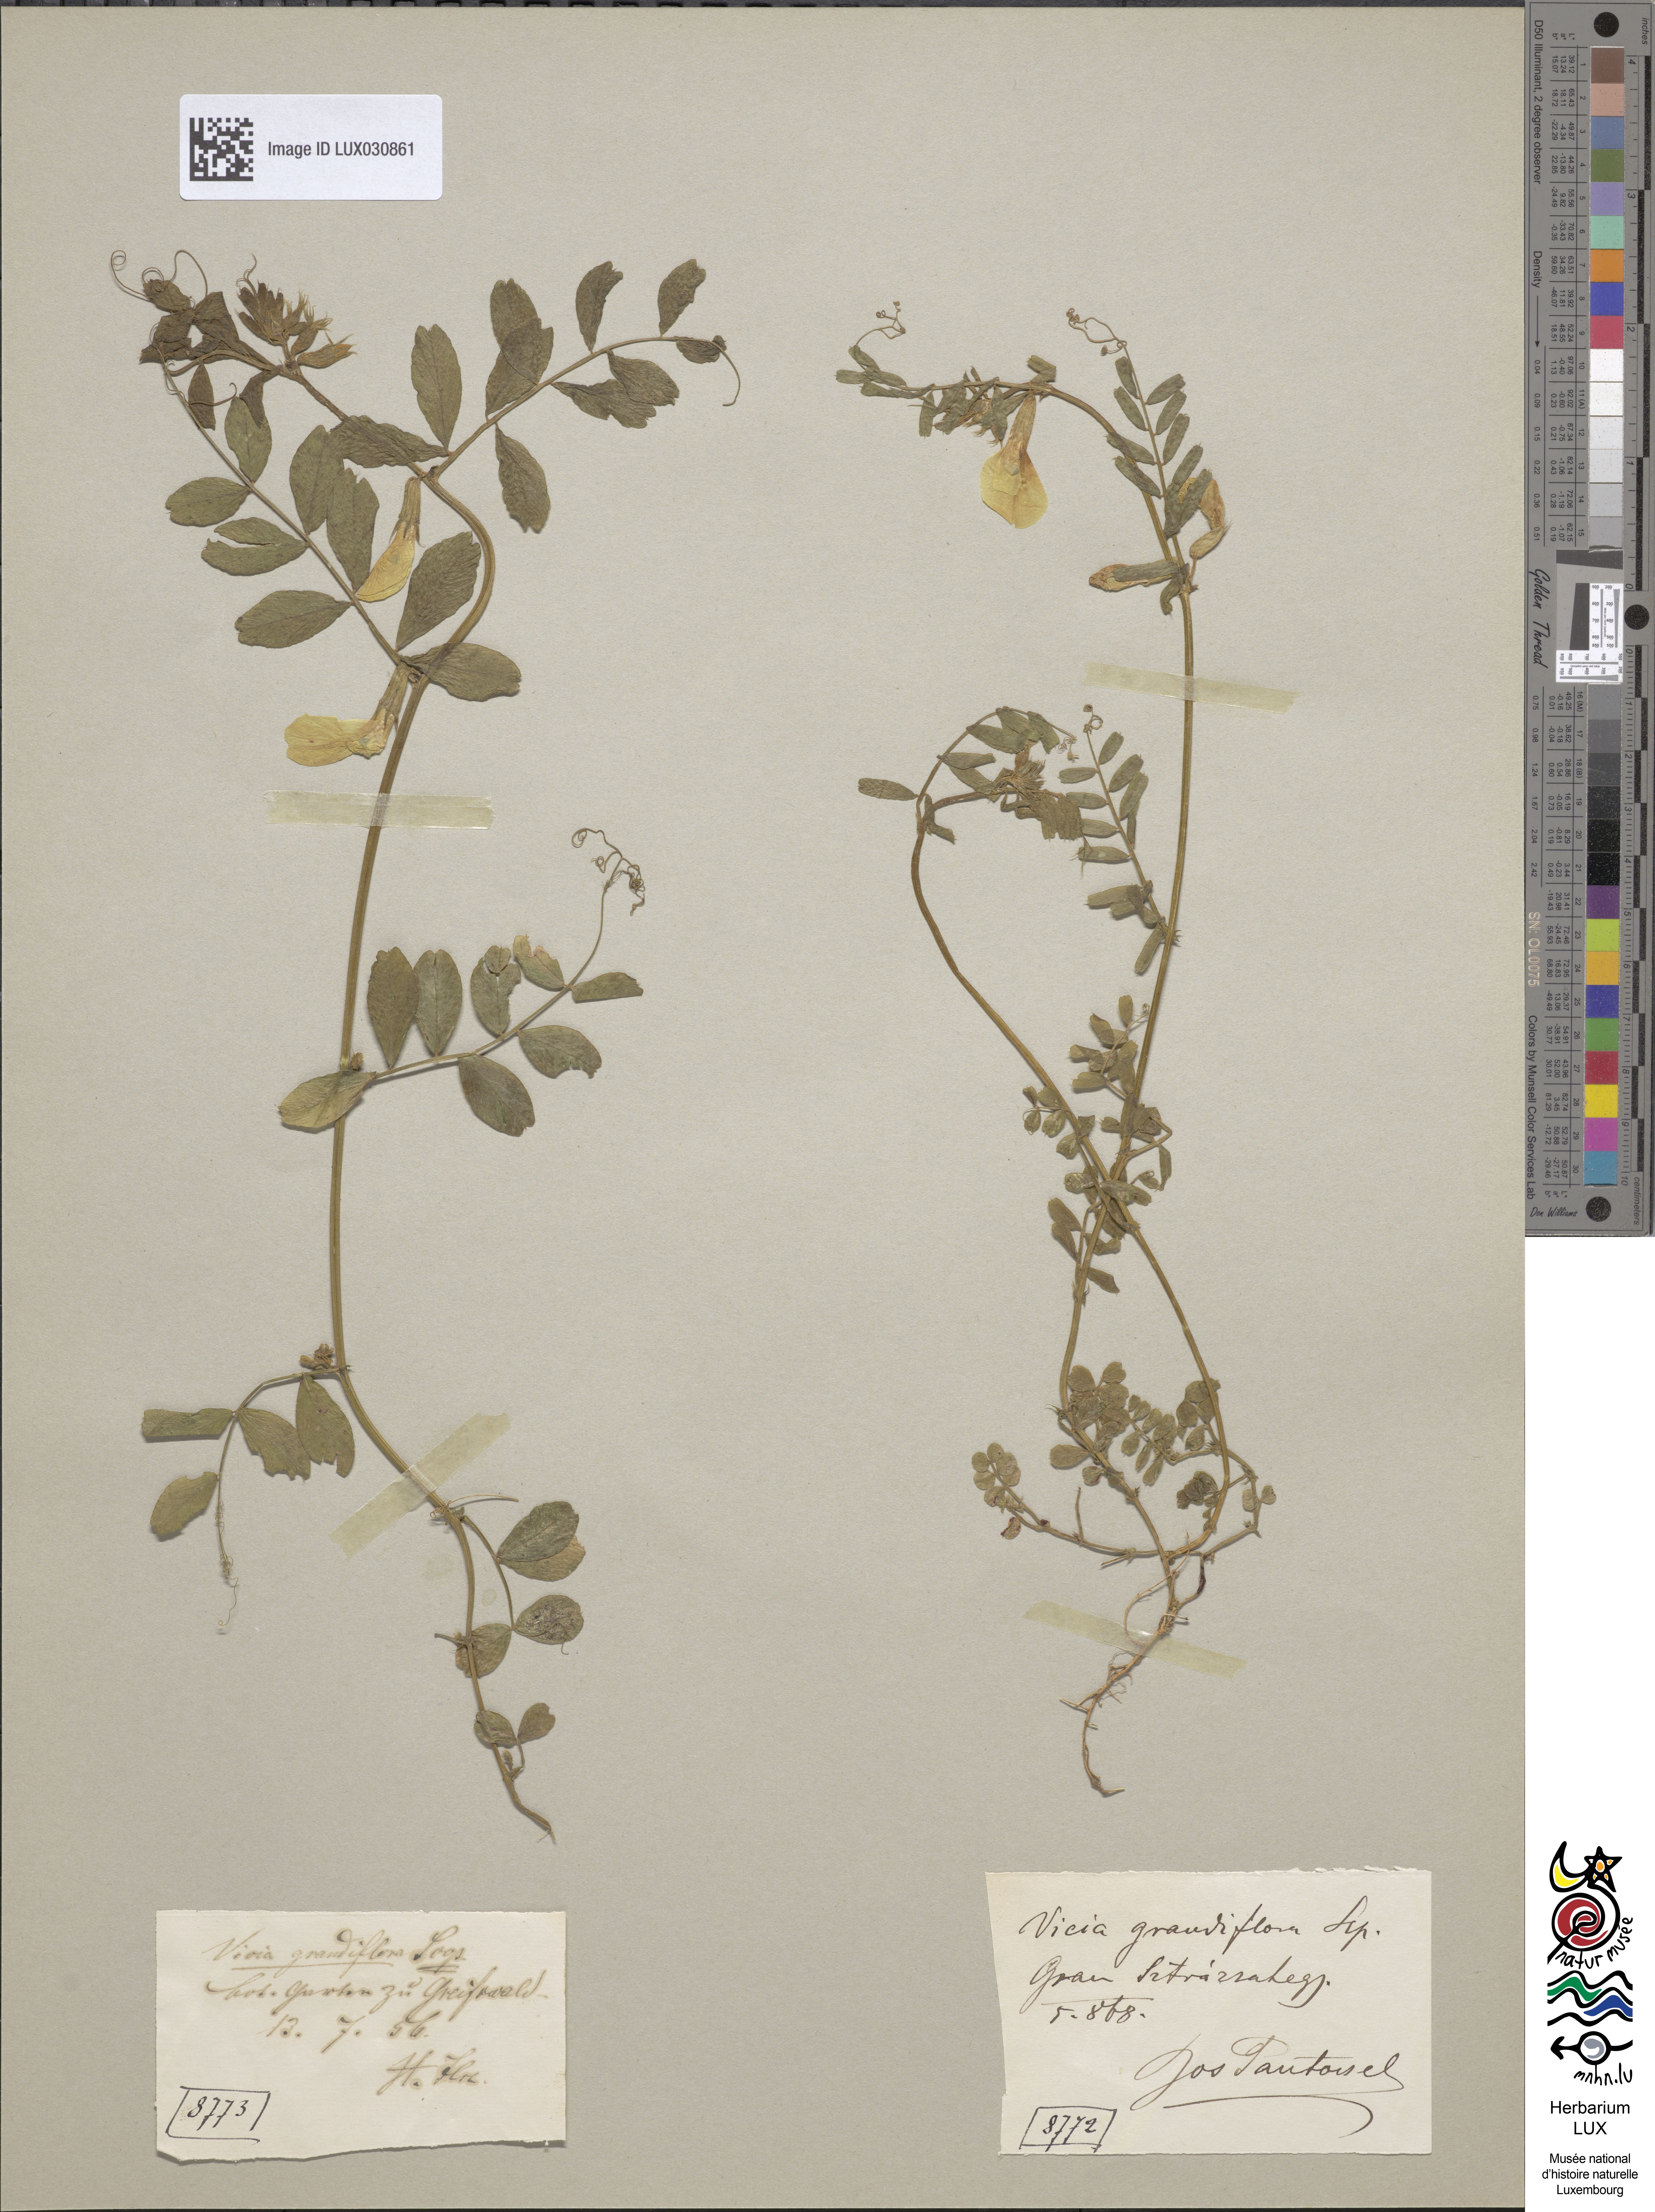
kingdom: Plantae
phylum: Tracheophyta
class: Magnoliopsida
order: Fabales
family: Fabaceae
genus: Vicia
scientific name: Vicia grandiflora
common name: Large yellow vetch
